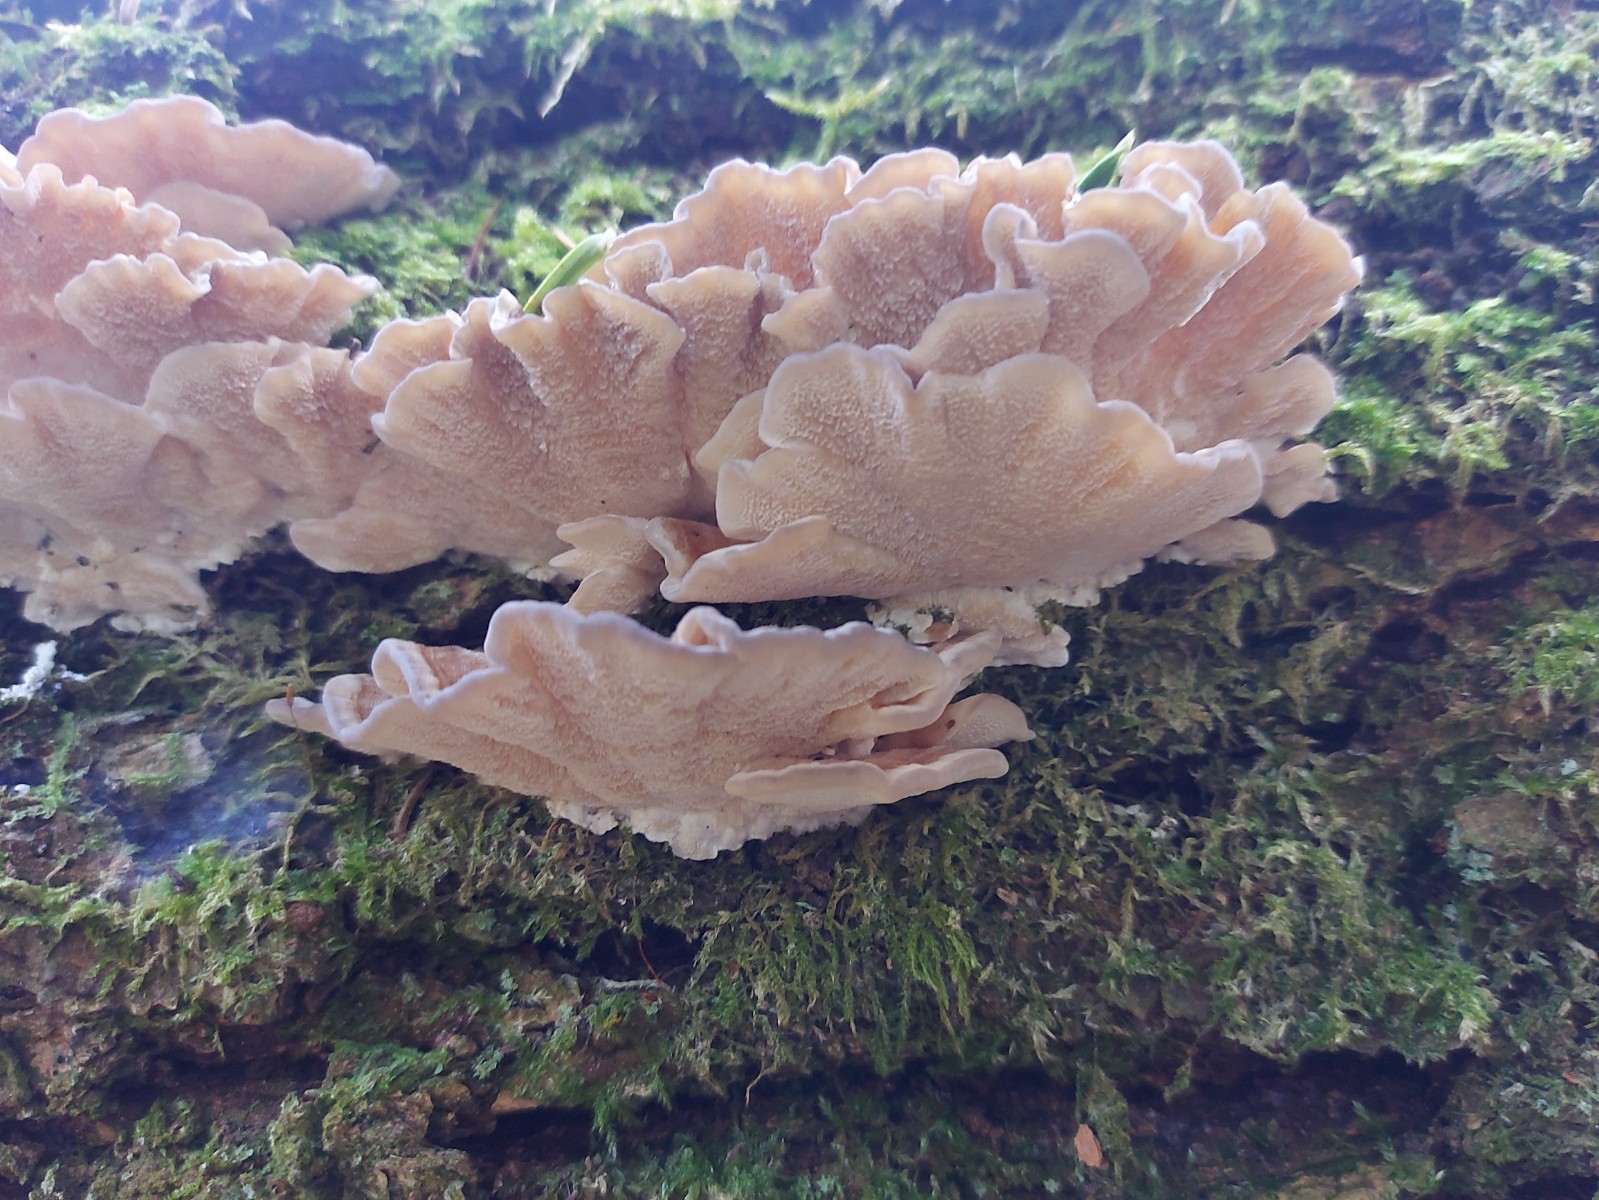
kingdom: Fungi
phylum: Basidiomycota
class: Agaricomycetes
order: Polyporales
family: Polyporaceae
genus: Trametes
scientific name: Trametes versicolor
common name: broget læderporesvamp
